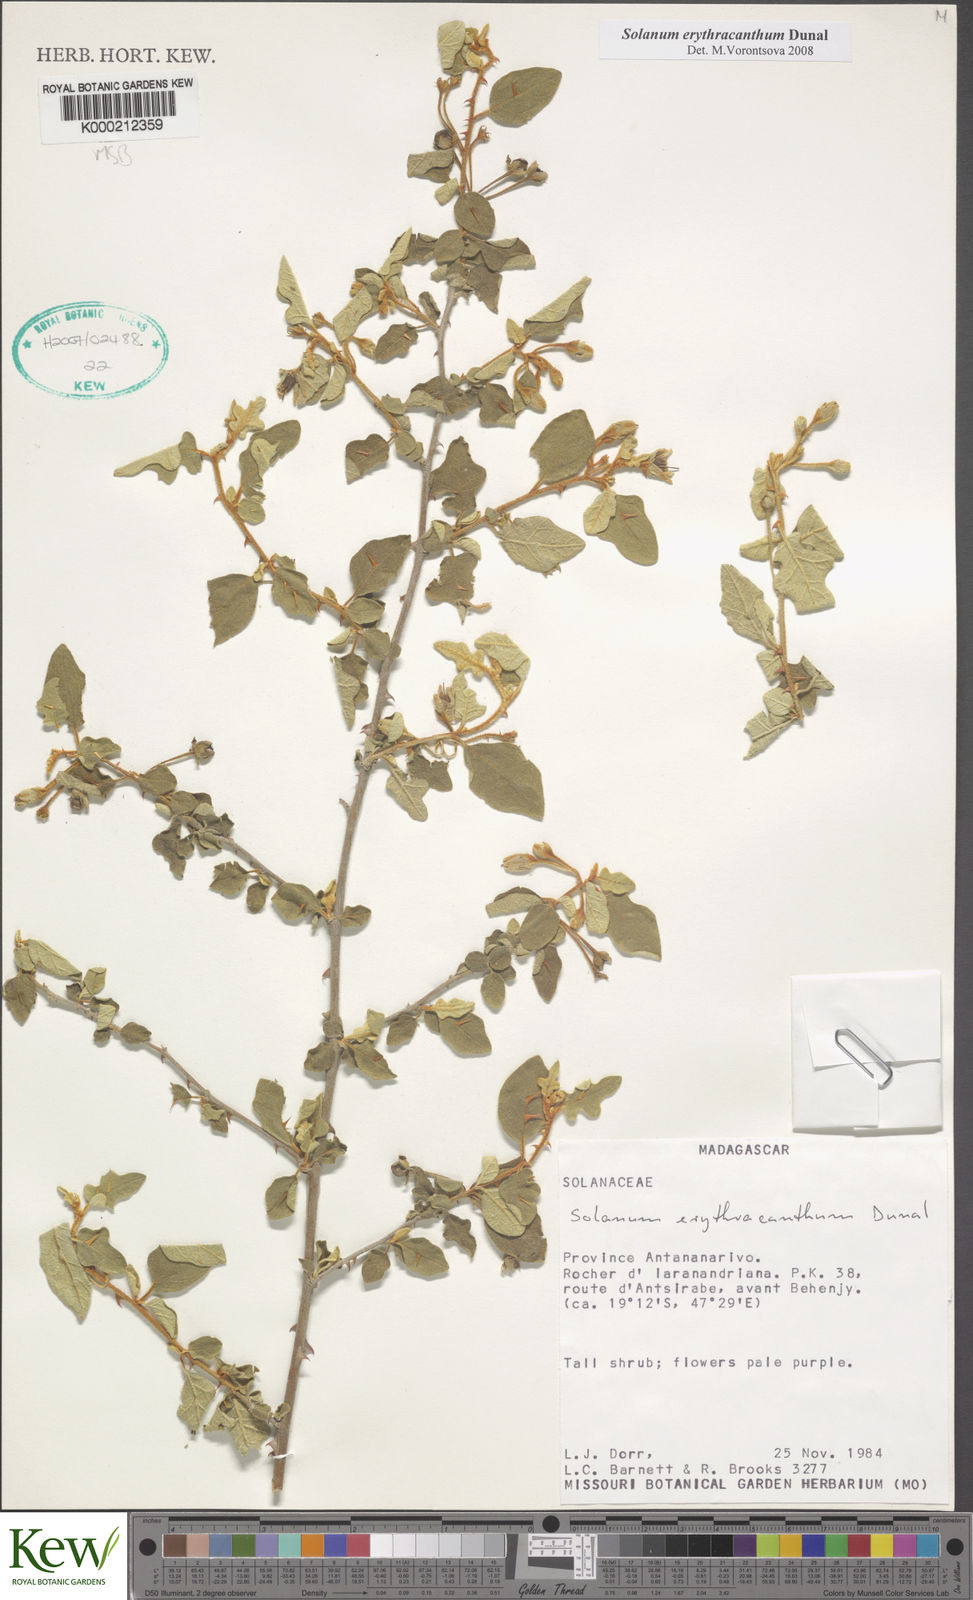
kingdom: Plantae
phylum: Tracheophyta
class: Magnoliopsida
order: Solanales
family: Solanaceae
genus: Solanum
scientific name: Solanum erythracanthum
